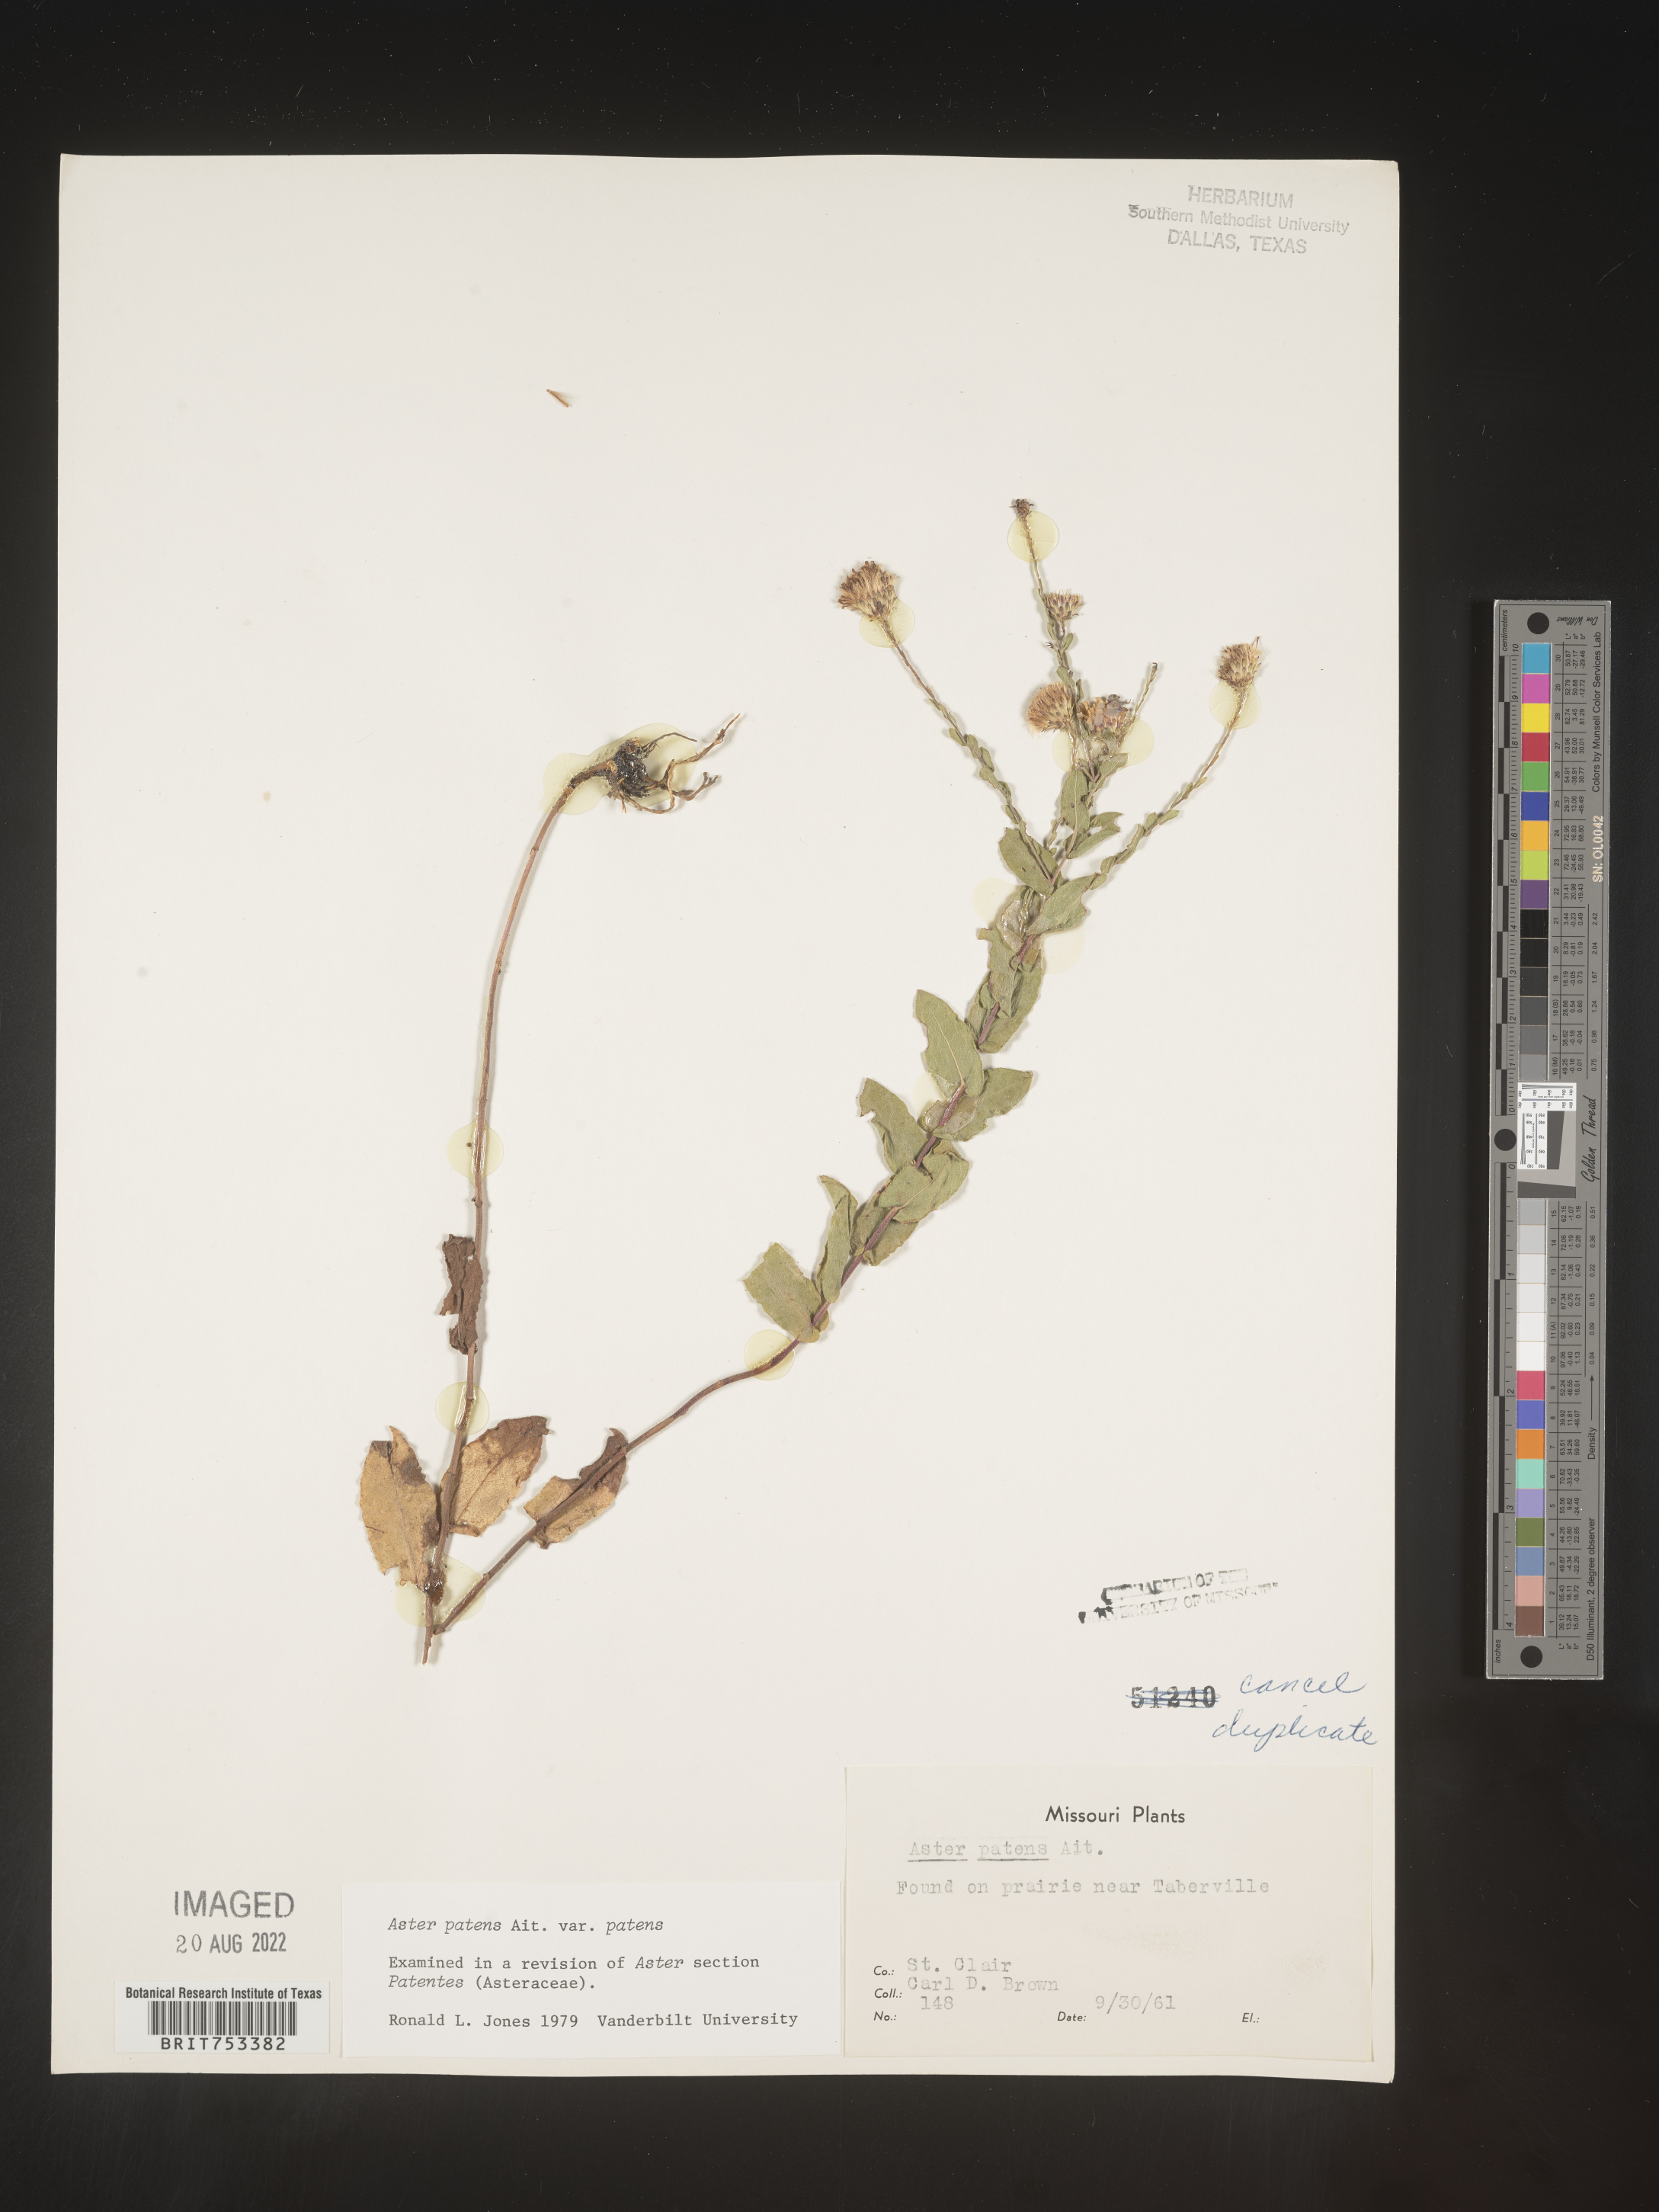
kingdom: Plantae
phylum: Tracheophyta
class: Magnoliopsida
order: Asterales
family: Asteraceae
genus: Symphyotrichum
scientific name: Symphyotrichum patens
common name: Late purple aster
